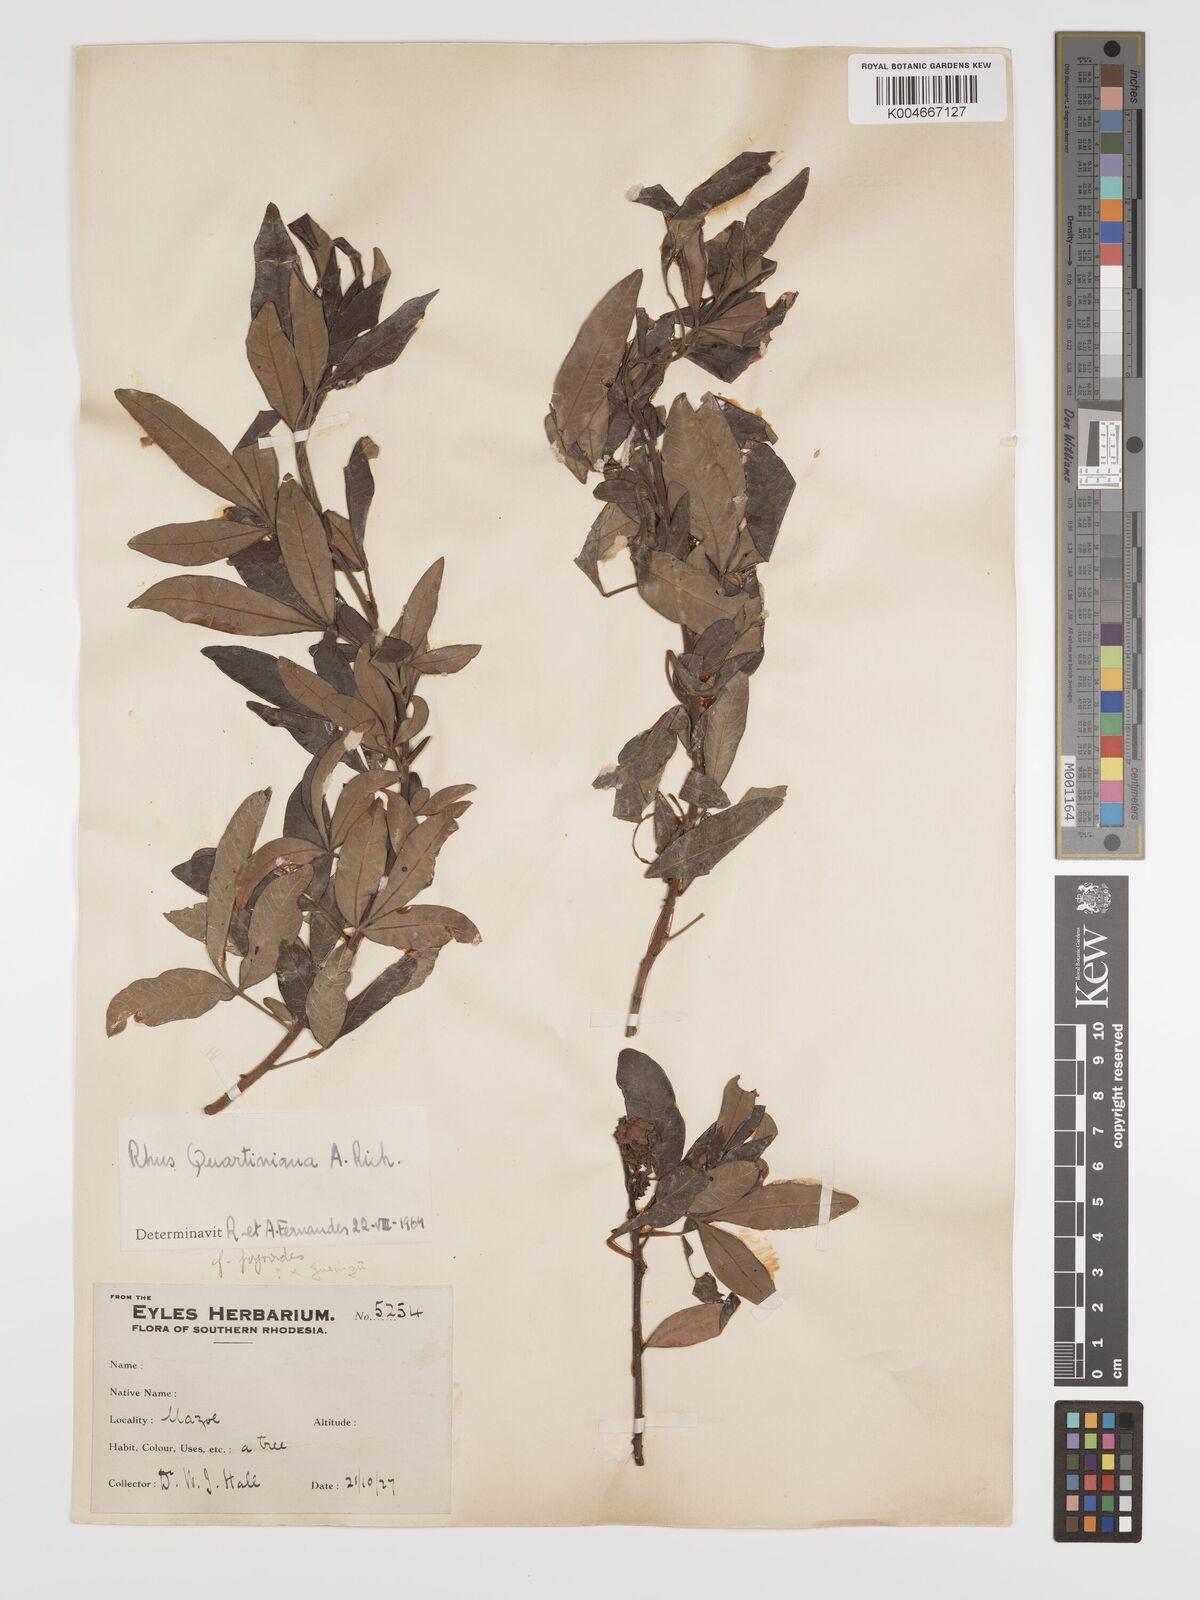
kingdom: Plantae
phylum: Tracheophyta
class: Magnoliopsida
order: Sapindales
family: Anacardiaceae
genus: Searsia
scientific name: Searsia quartiniana
